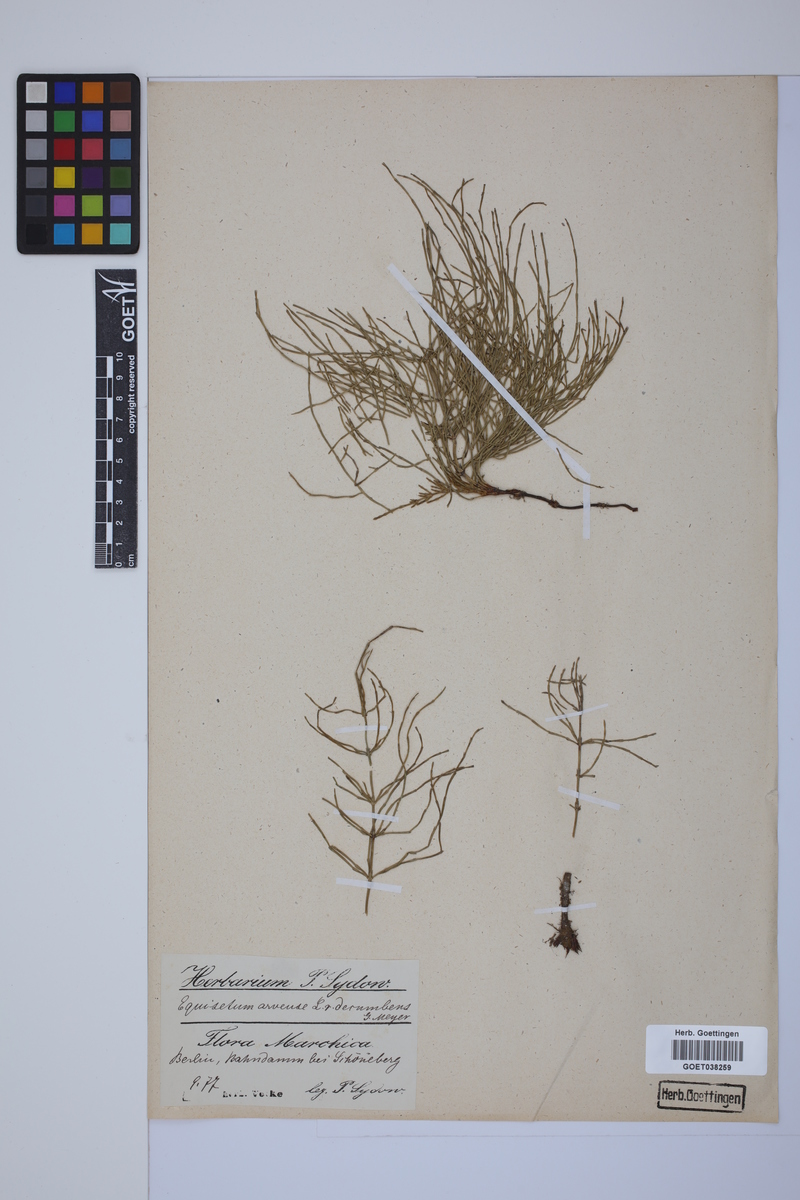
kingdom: Plantae
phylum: Tracheophyta
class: Polypodiopsida
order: Equisetales
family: Equisetaceae
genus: Equisetum
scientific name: Equisetum arvense
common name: Field horsetail
